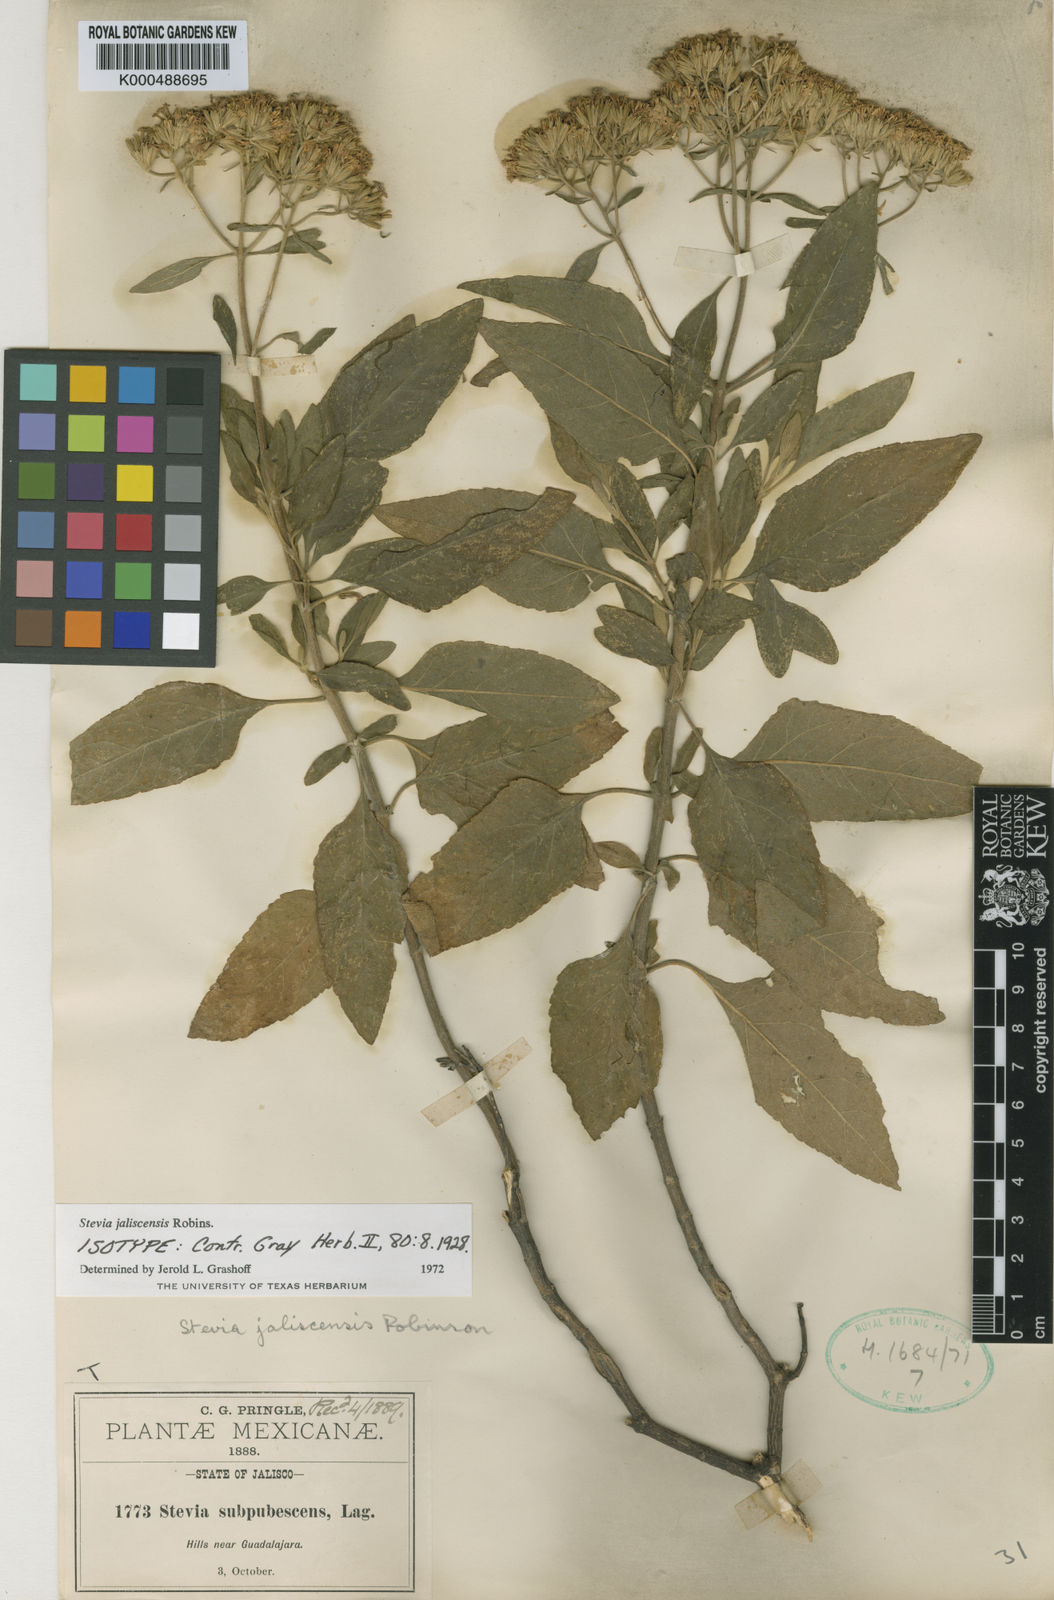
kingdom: Plantae
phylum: Tracheophyta
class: Magnoliopsida
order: Asterales
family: Asteraceae
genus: Stevia
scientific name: Stevia jaliscensis
